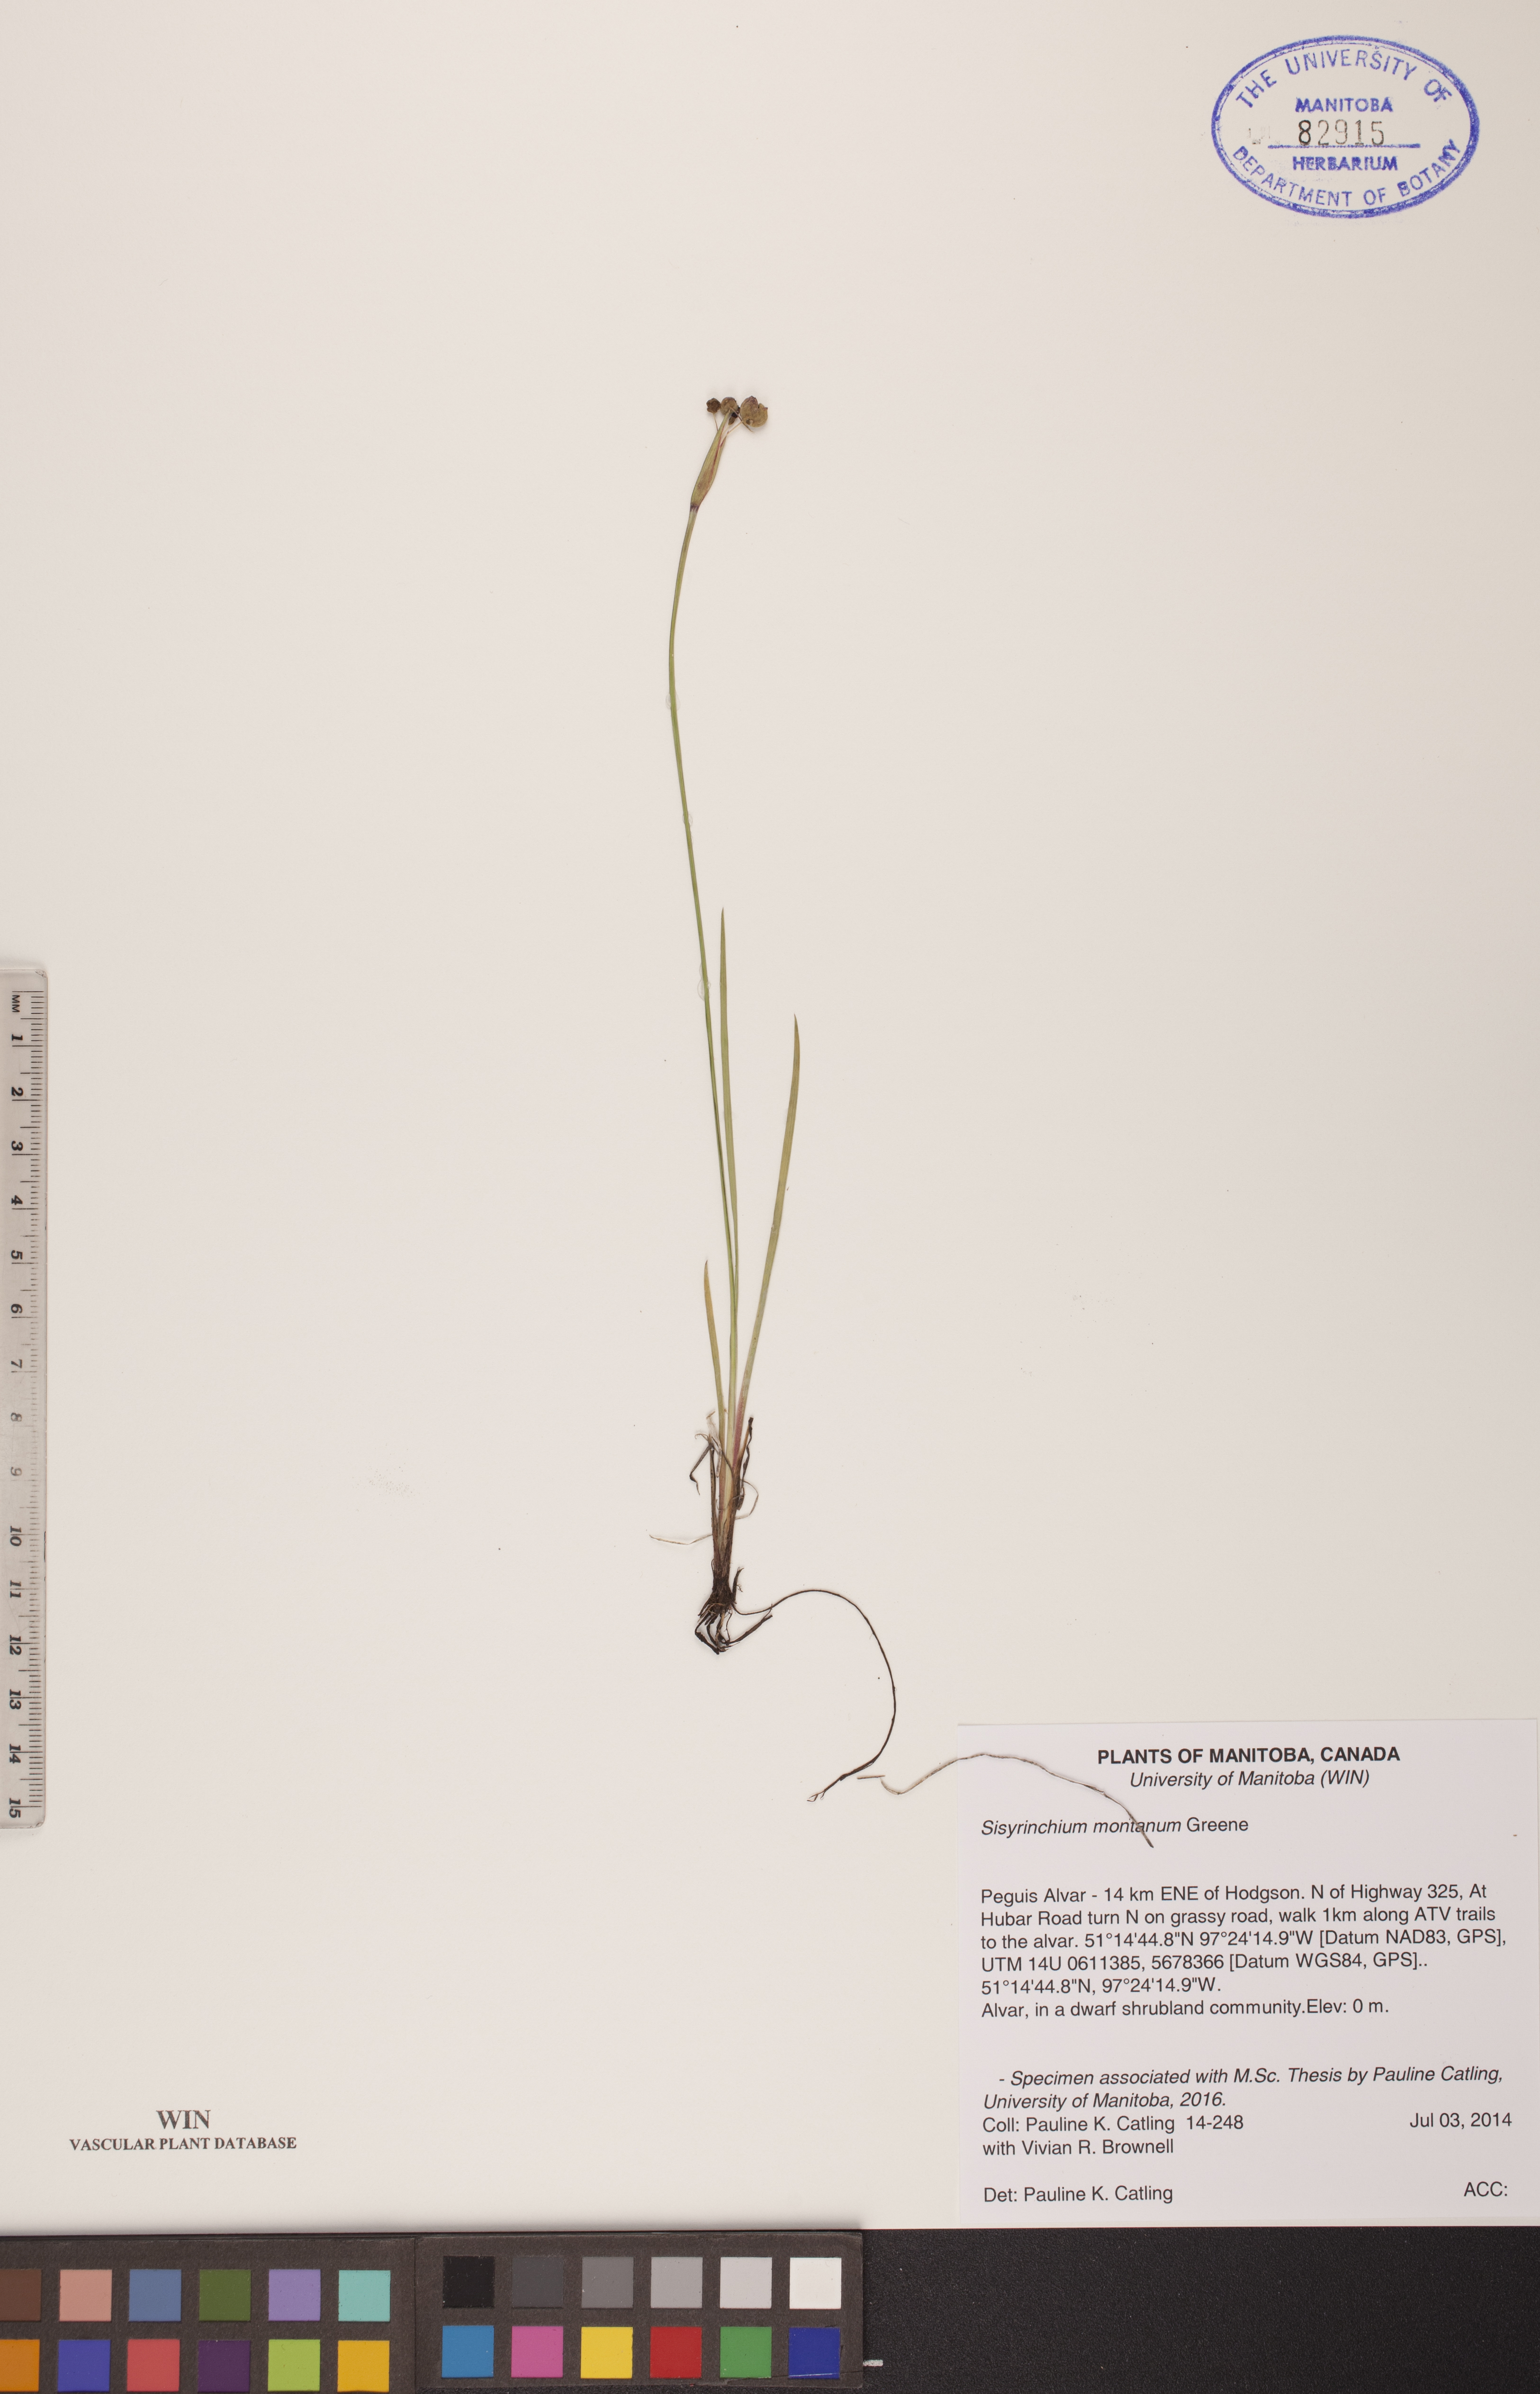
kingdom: Plantae
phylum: Tracheophyta
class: Liliopsida
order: Asparagales
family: Iridaceae
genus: Sisyrinchium
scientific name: Sisyrinchium montanum
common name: American blue-eyed-grass
